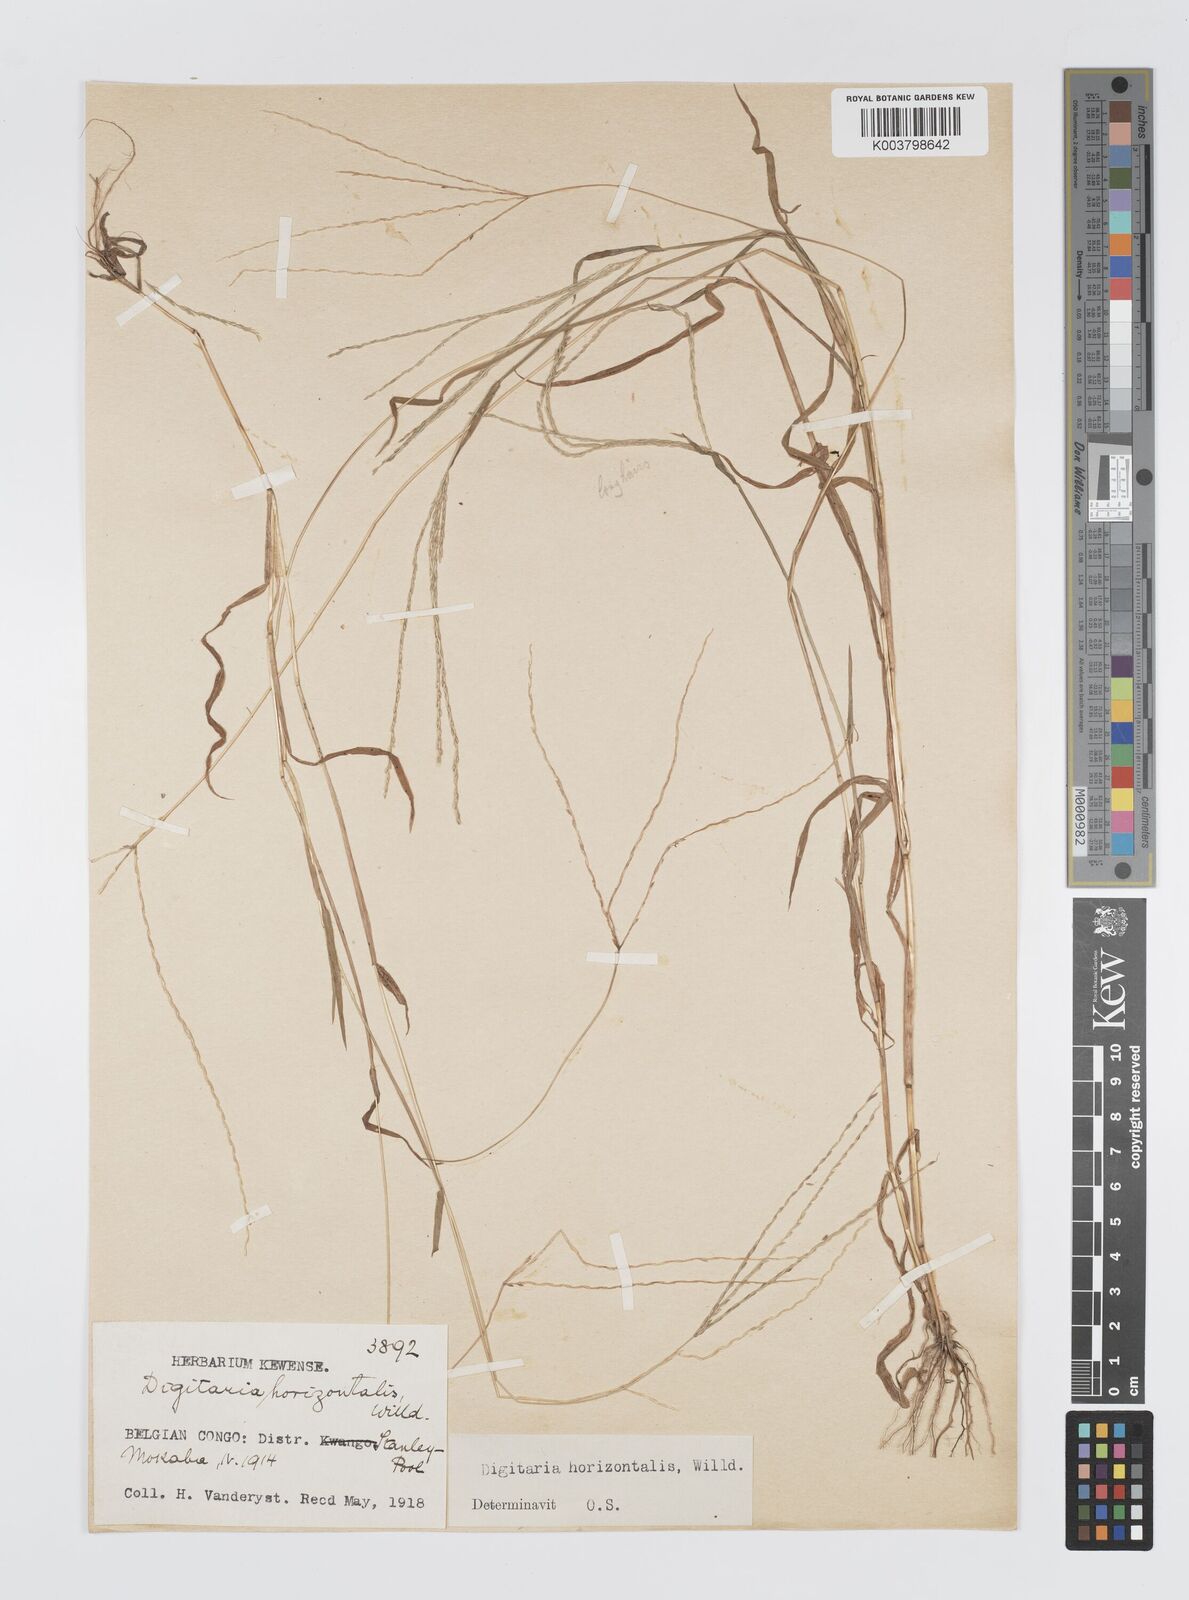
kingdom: Plantae
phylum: Tracheophyta
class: Liliopsida
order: Poales
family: Poaceae
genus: Digitaria
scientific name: Digitaria horizontalis
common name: Jamaican crabgrass
